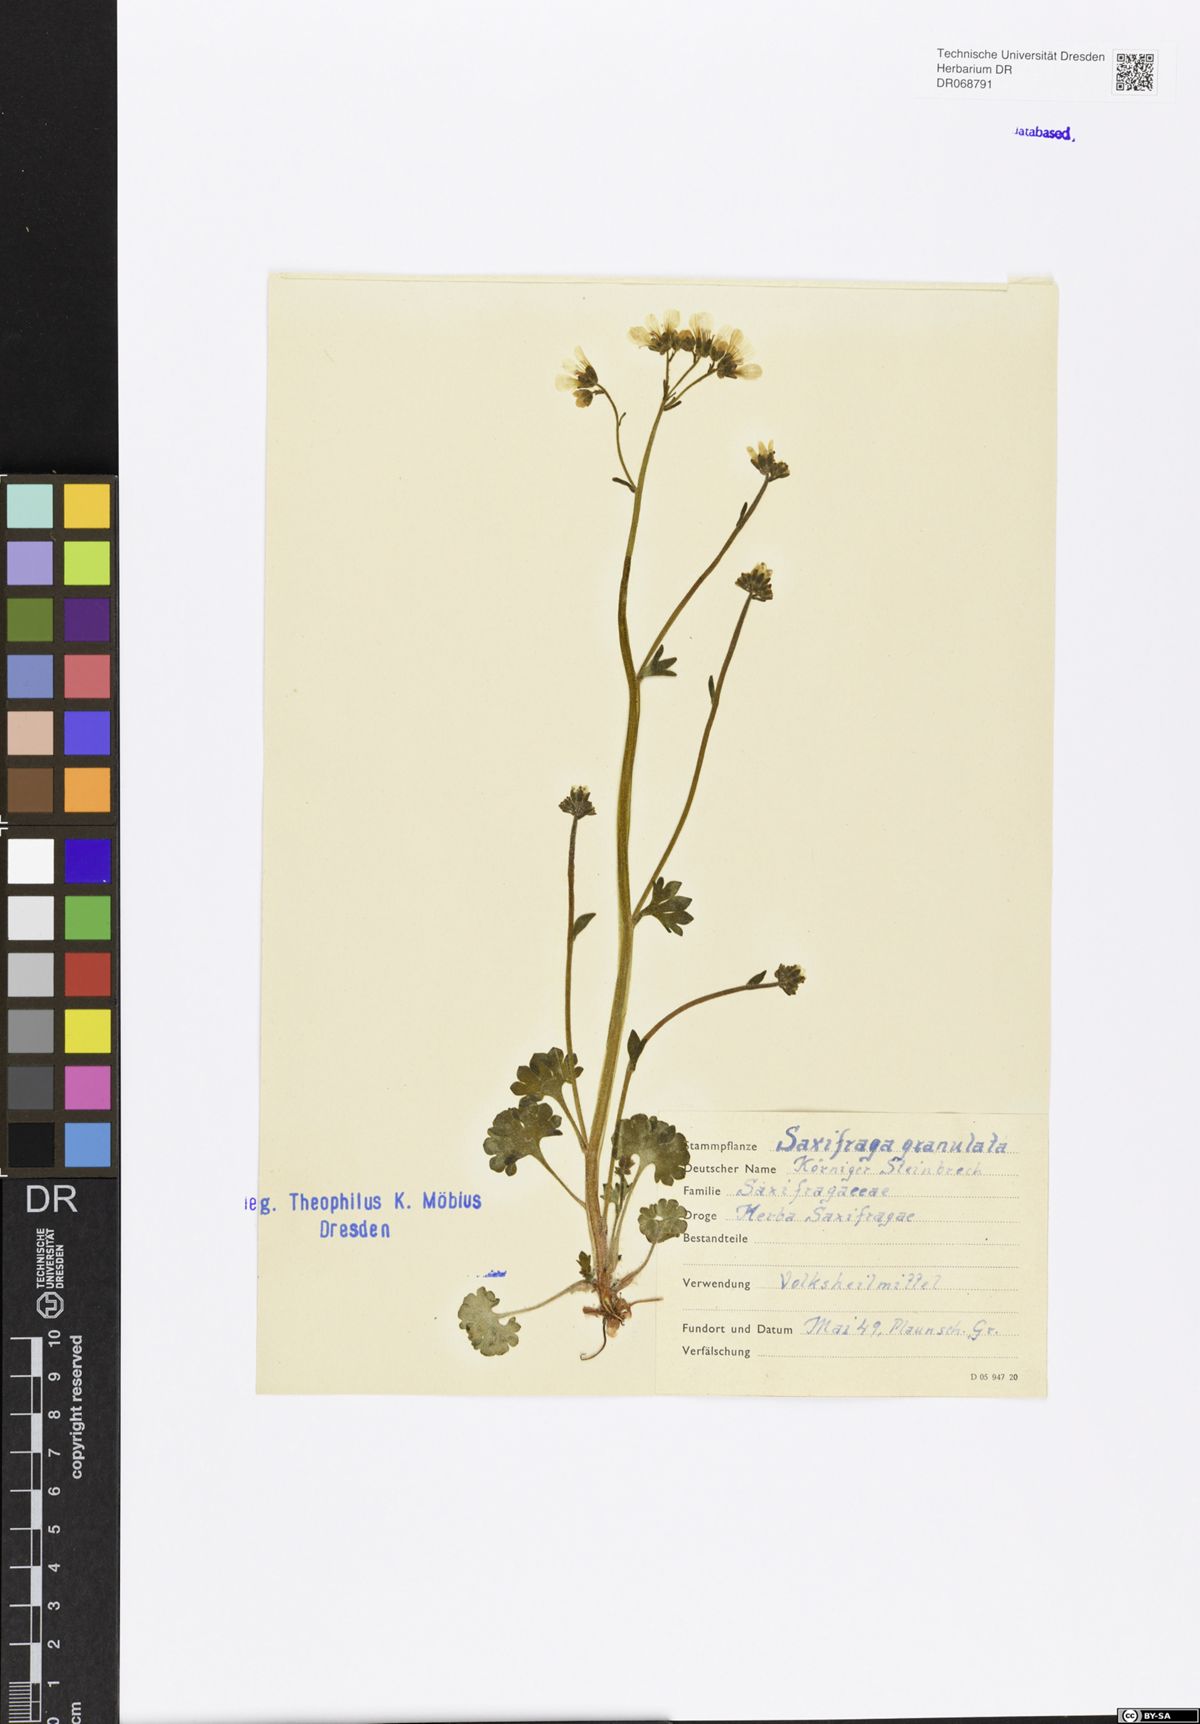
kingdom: Plantae
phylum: Tracheophyta
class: Magnoliopsida
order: Saxifragales
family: Saxifragaceae
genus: Saxifraga
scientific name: Saxifraga granulata
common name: Meadow saxifrage
